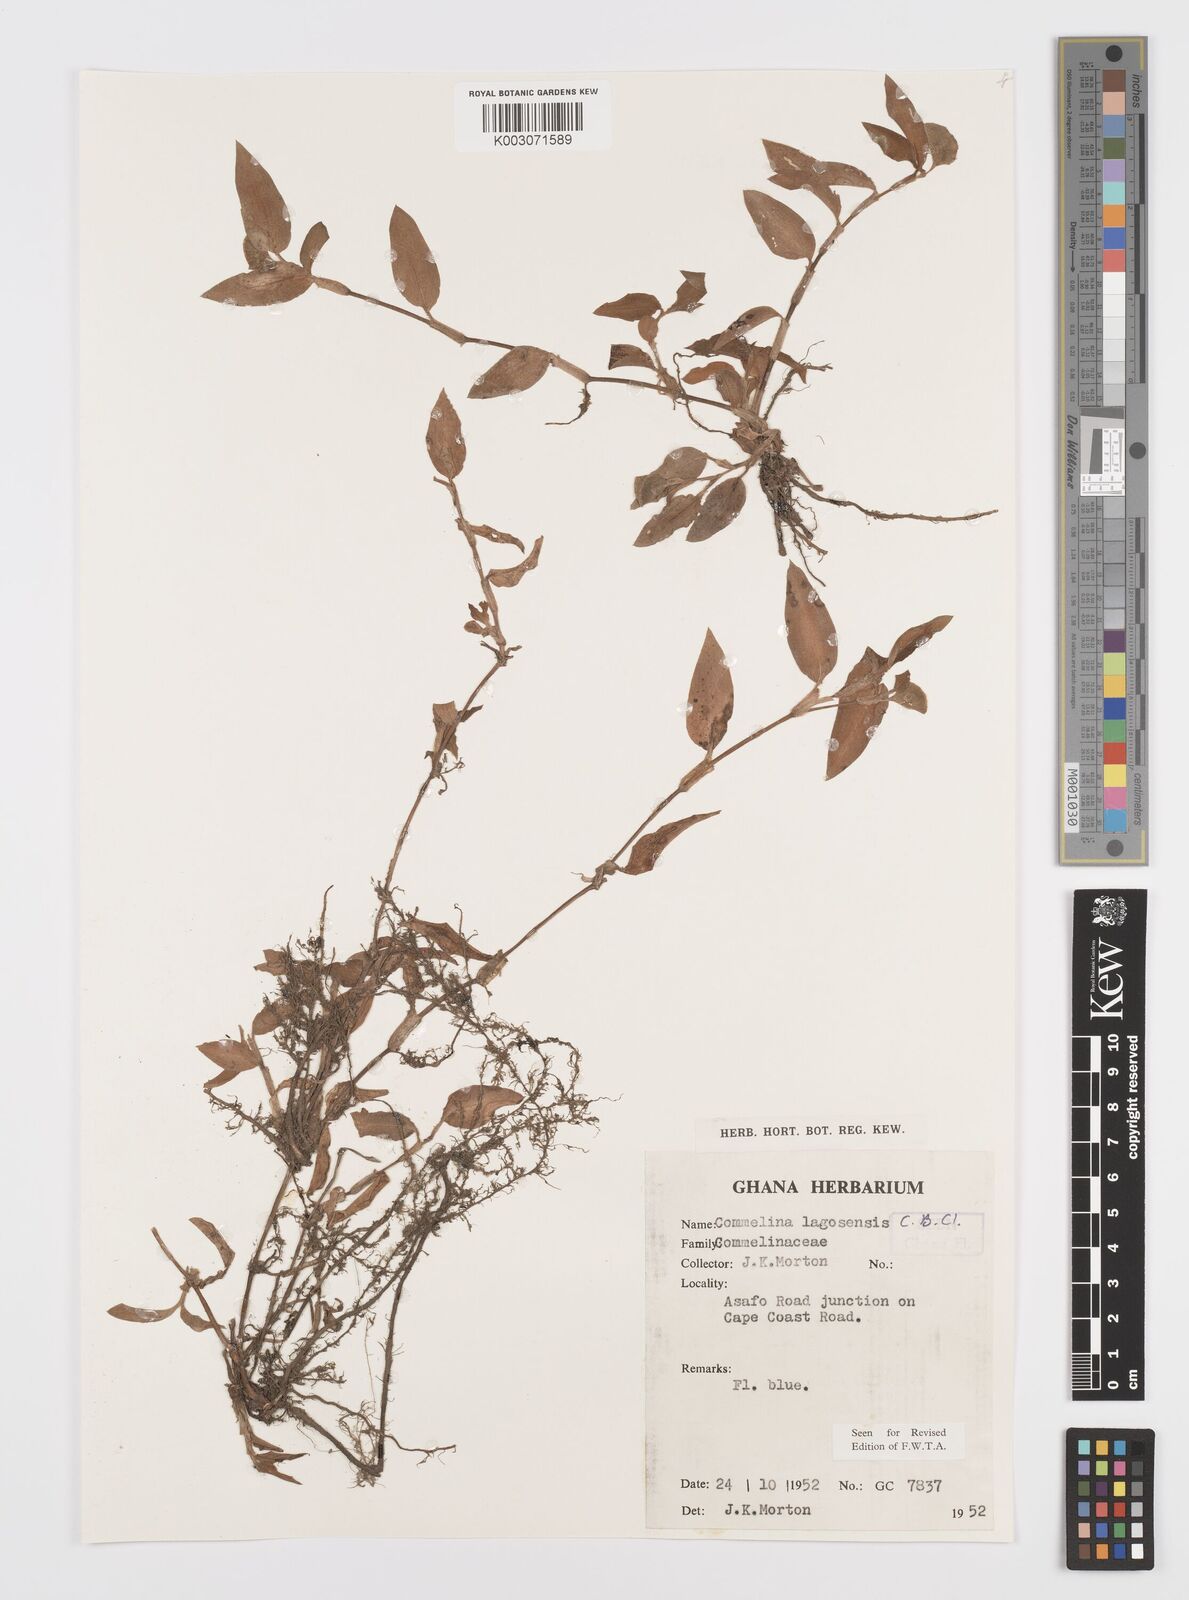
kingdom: Plantae
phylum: Tracheophyta
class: Liliopsida
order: Commelinales
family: Commelinaceae
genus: Commelina
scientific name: Commelina bracteosa
